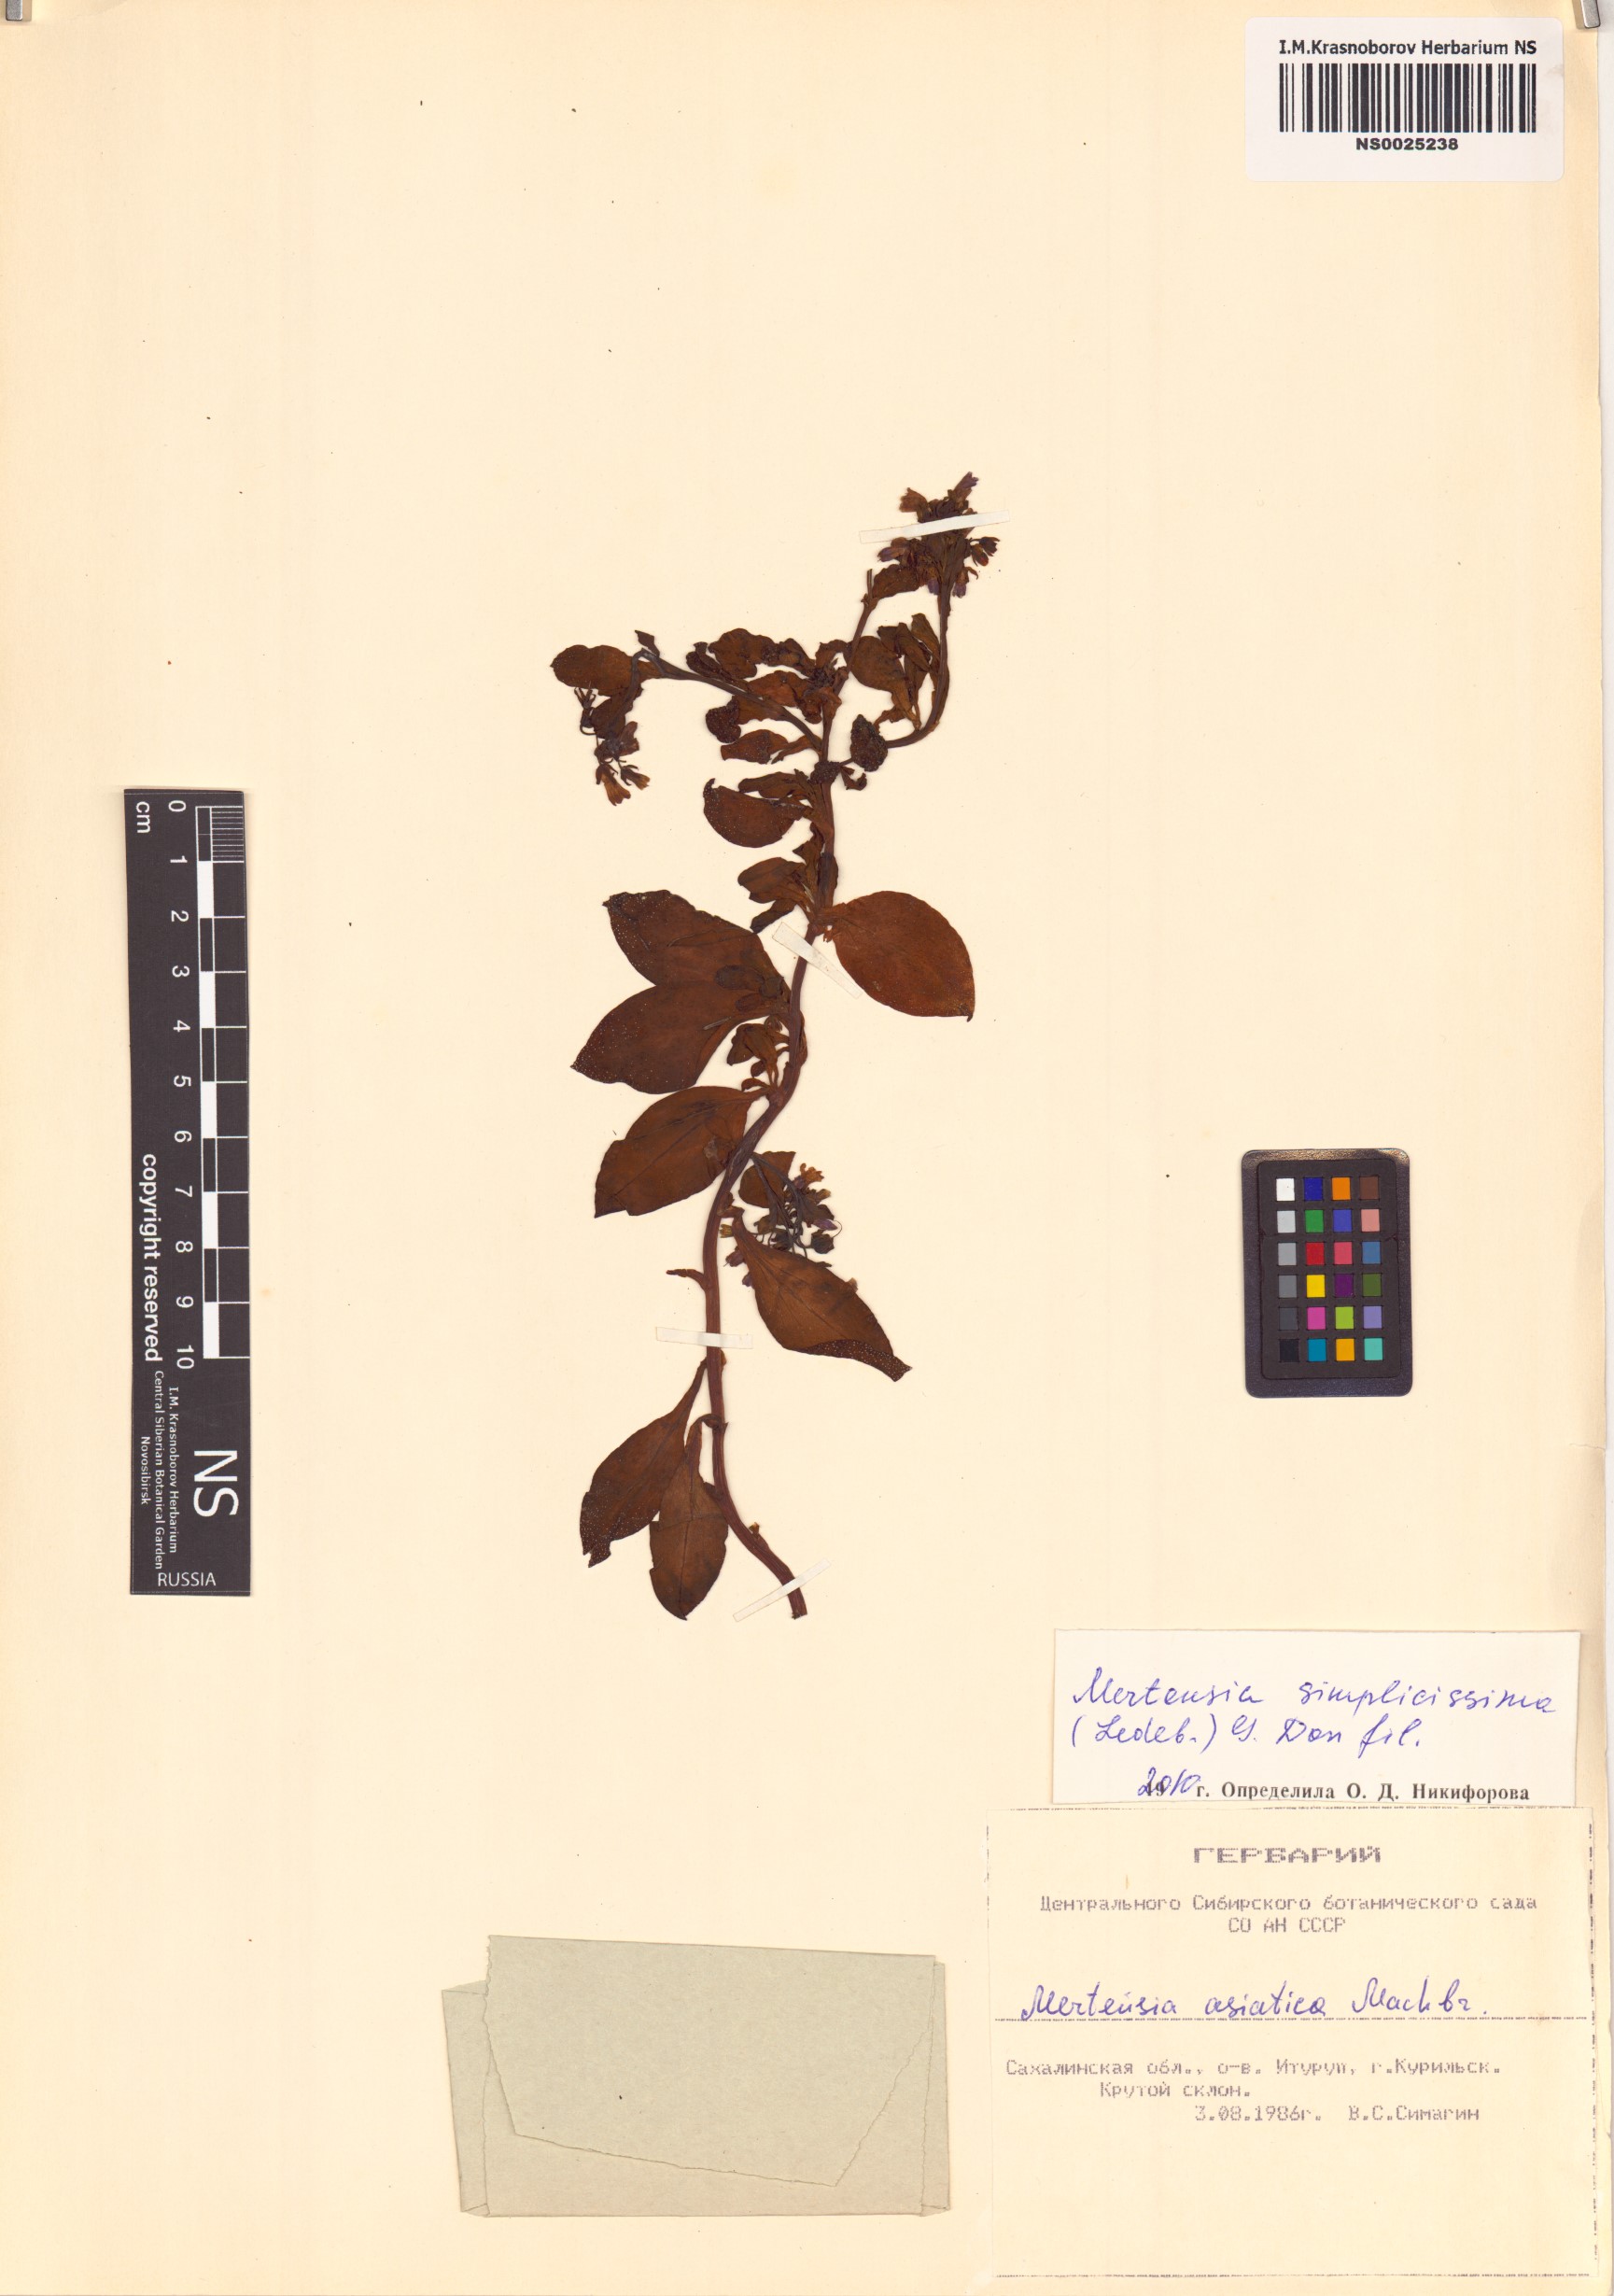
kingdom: Plantae
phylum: Tracheophyta
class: Magnoliopsida
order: Boraginales
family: Boraginaceae
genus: Mertensia
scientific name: Mertensia simplicissima
